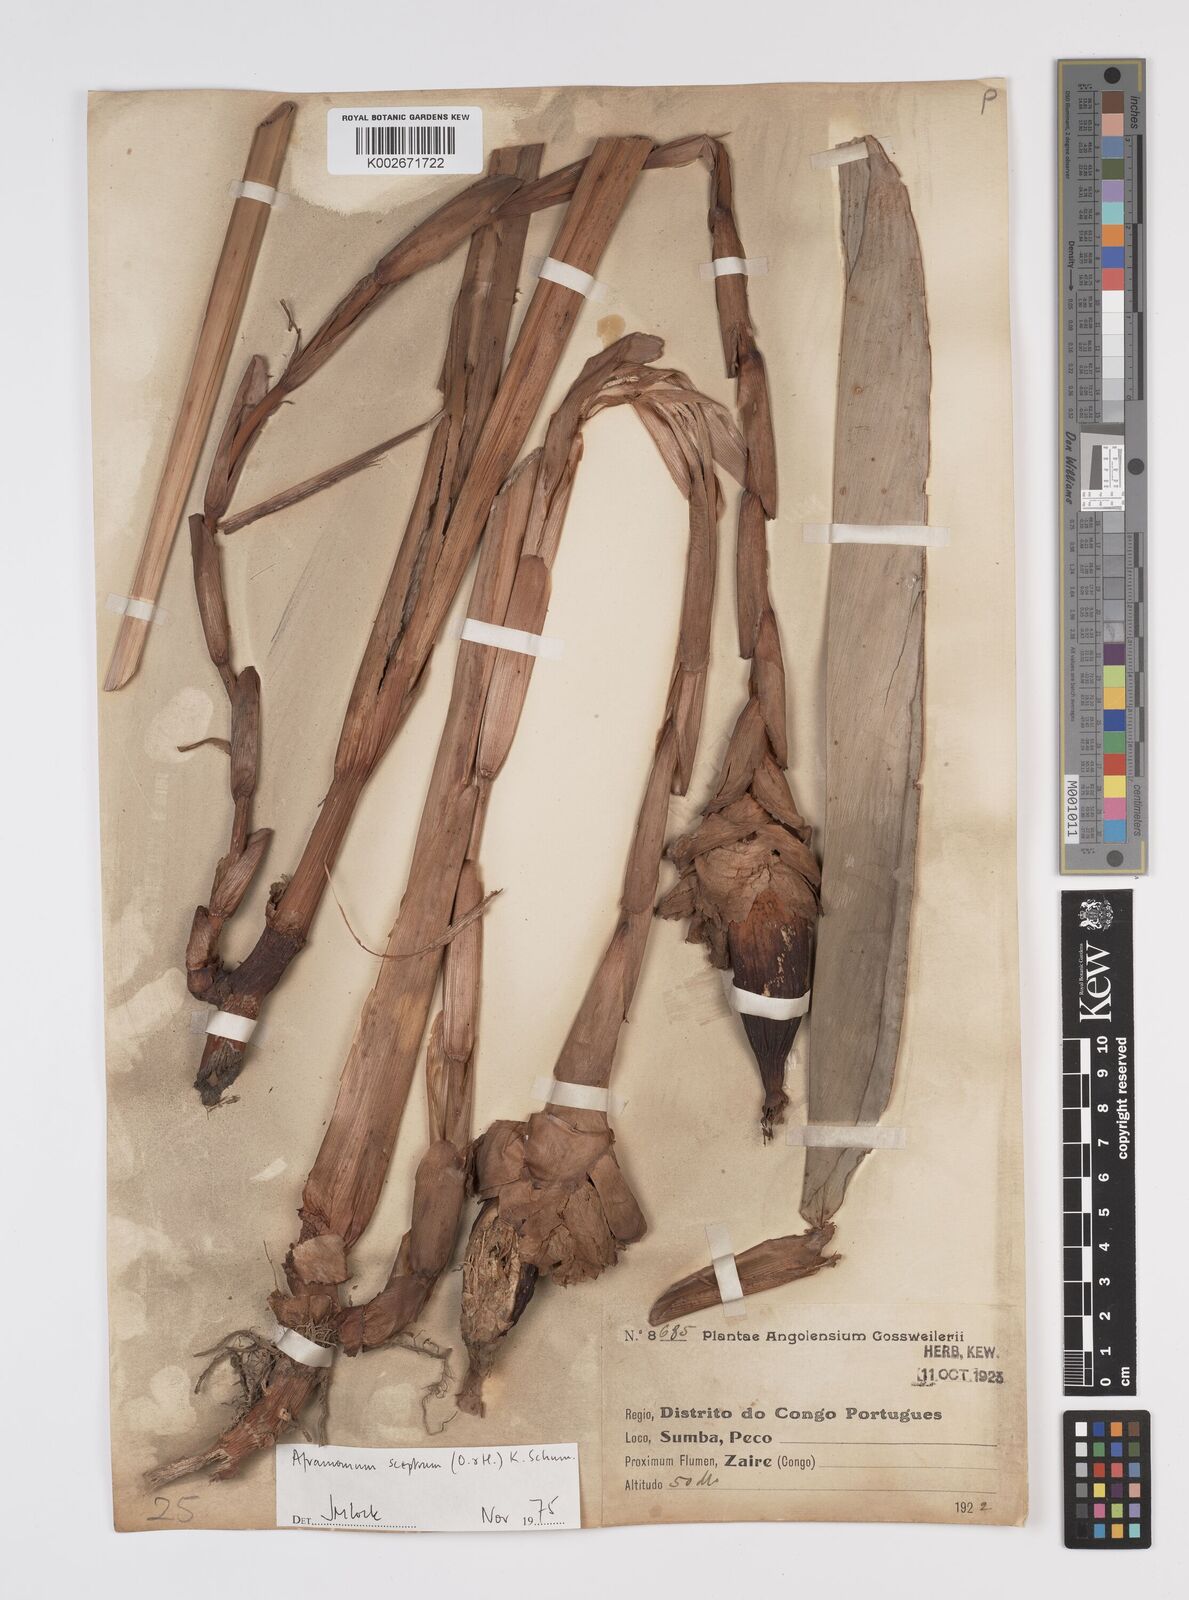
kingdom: Plantae
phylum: Tracheophyta
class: Liliopsida
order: Zingiberales
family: Zingiberaceae
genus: Aframomum
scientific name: Aframomum cereum
